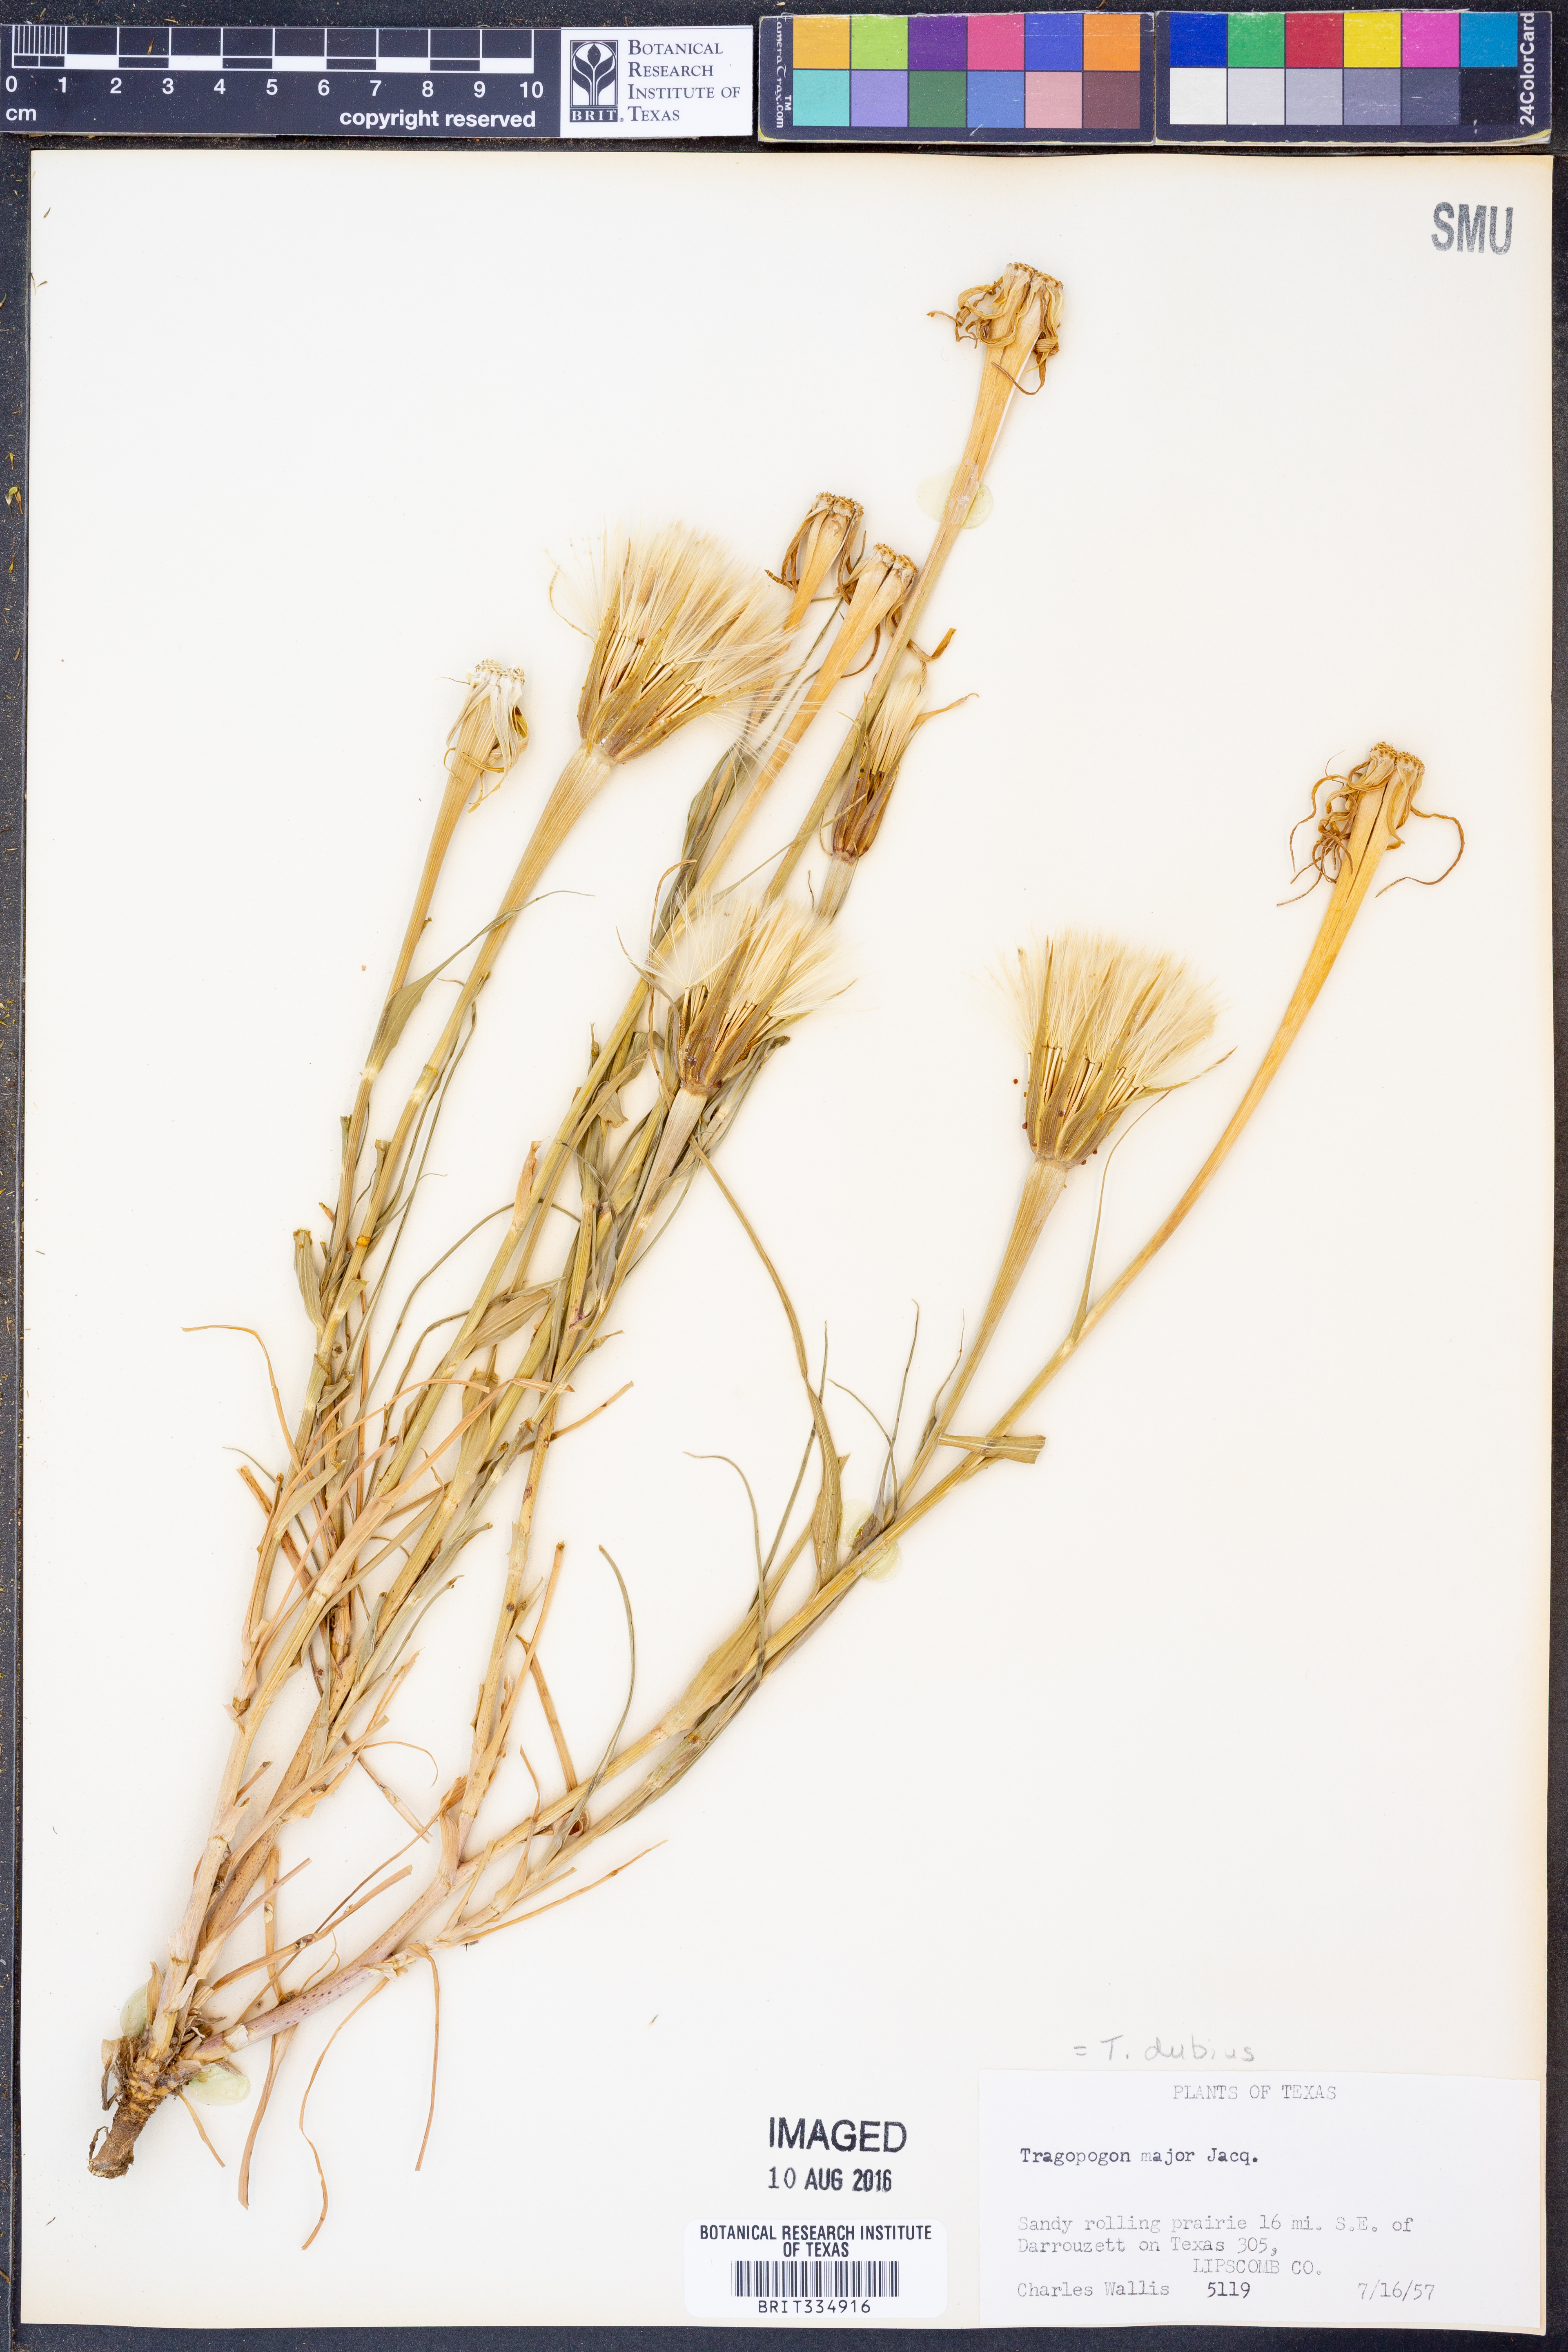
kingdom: Plantae
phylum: Tracheophyta
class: Magnoliopsida
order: Asterales
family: Asteraceae
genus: Tragopogon
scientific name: Tragopogon dubius
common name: Yellow salsify
